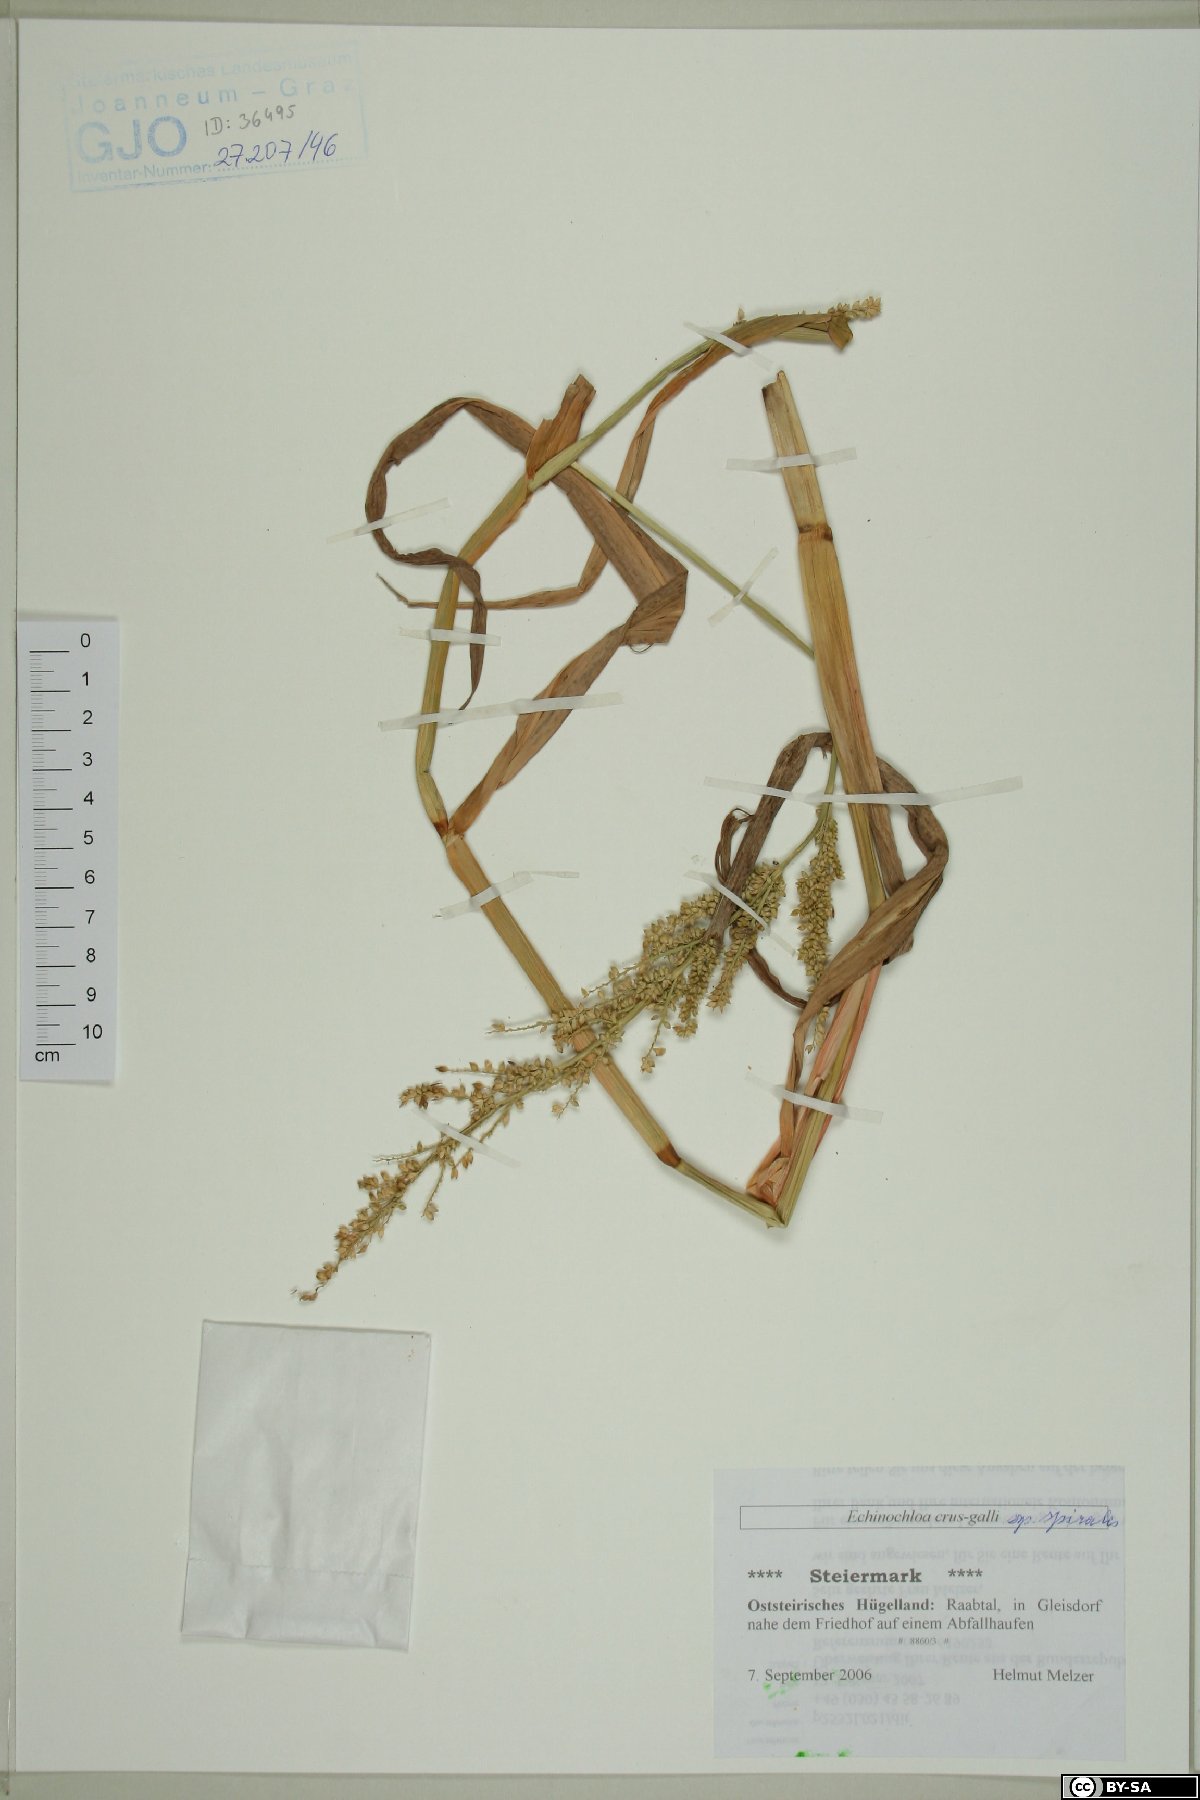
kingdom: Plantae
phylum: Tracheophyta
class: Liliopsida
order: Poales
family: Poaceae
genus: Echinochloa
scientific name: Echinochloa crus-galli
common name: Cockspur
